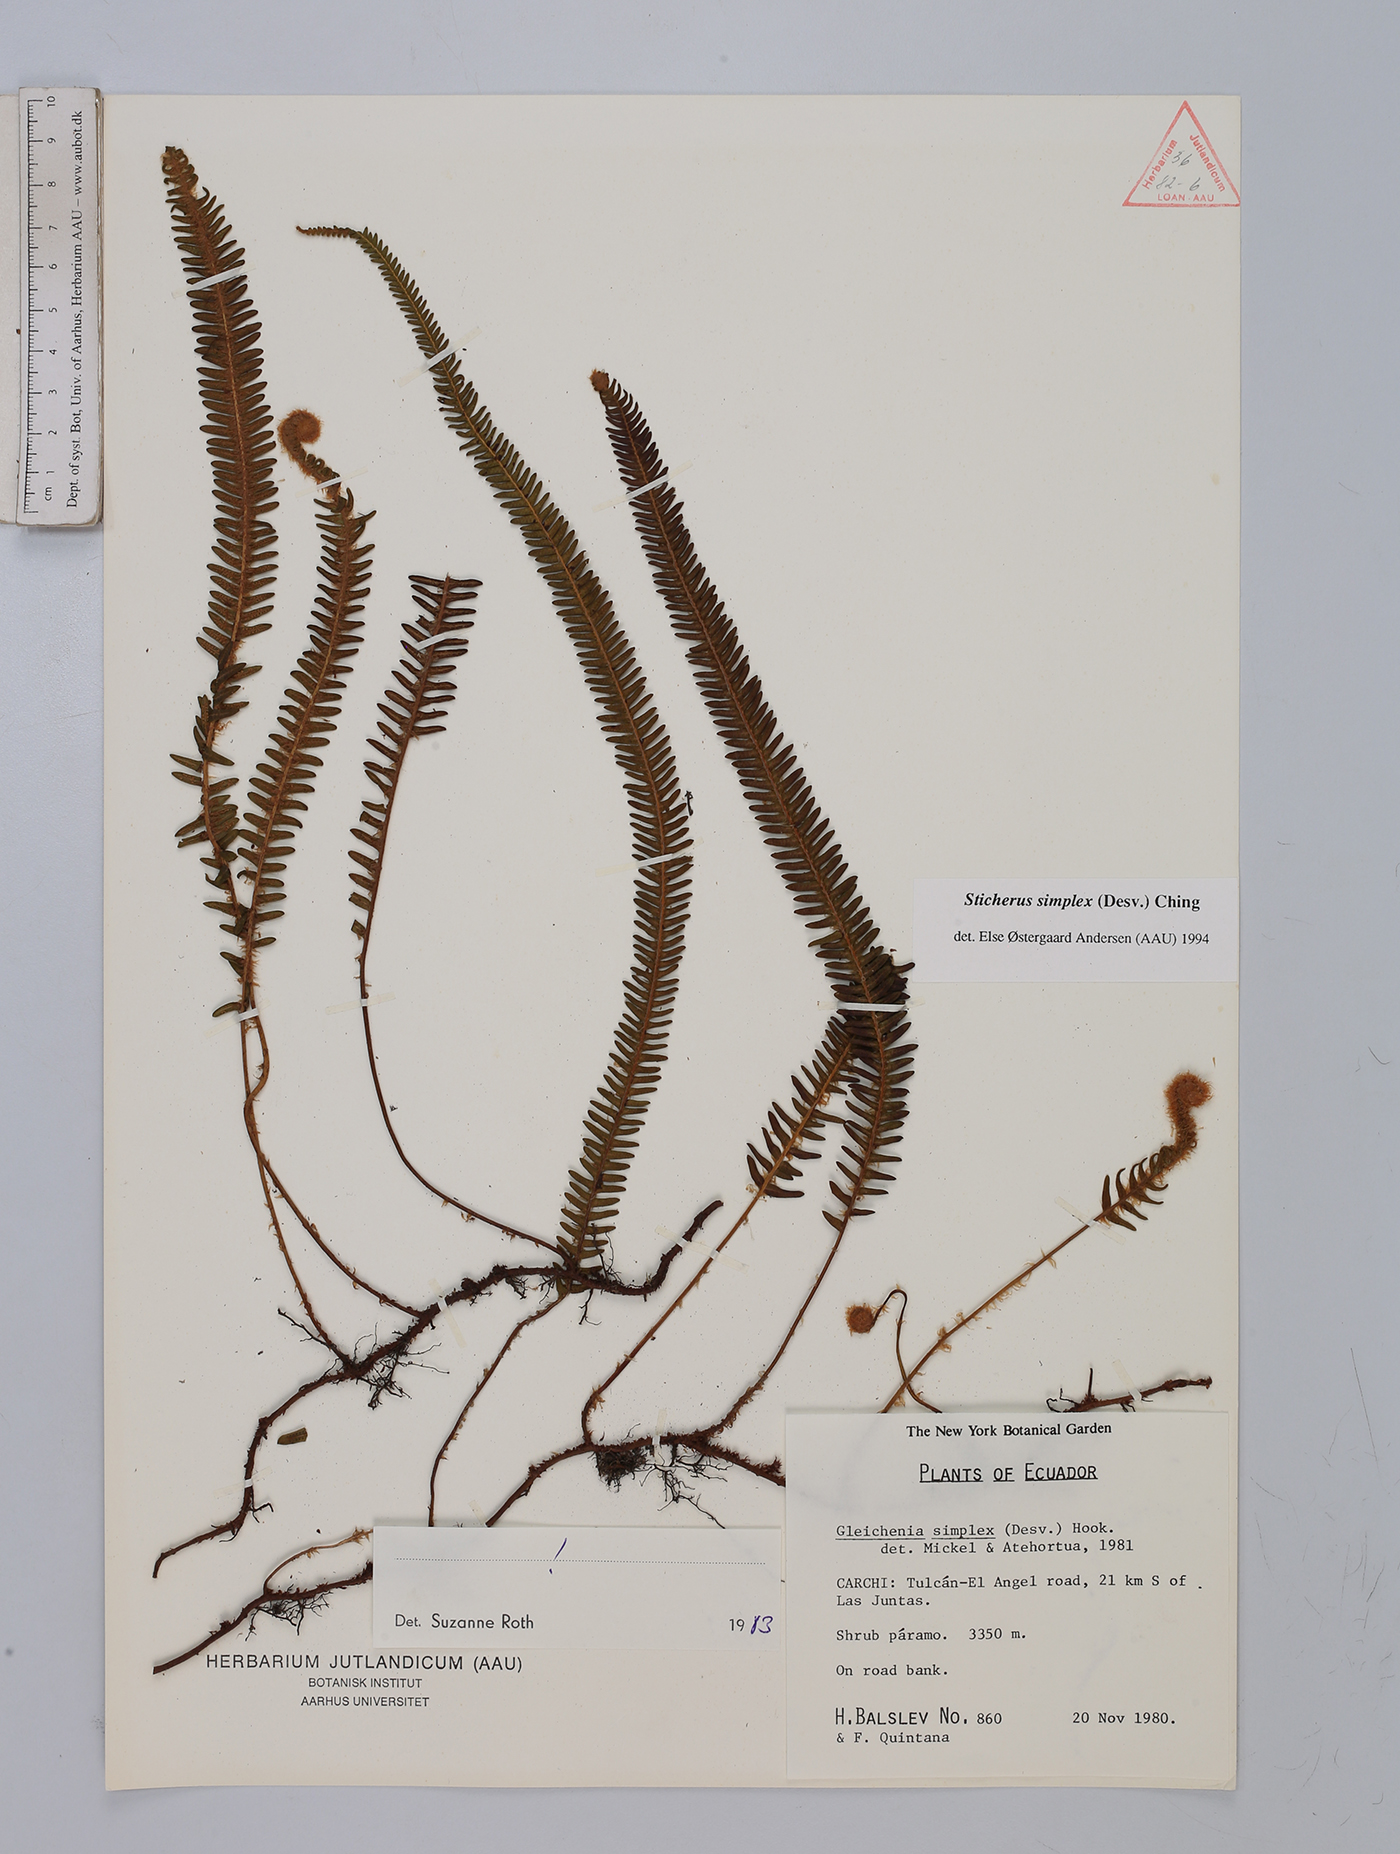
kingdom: Plantae
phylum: Tracheophyta
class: Polypodiopsida
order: Gleicheniales
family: Gleicheniaceae
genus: Sticherus
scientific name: Sticherus simplex
